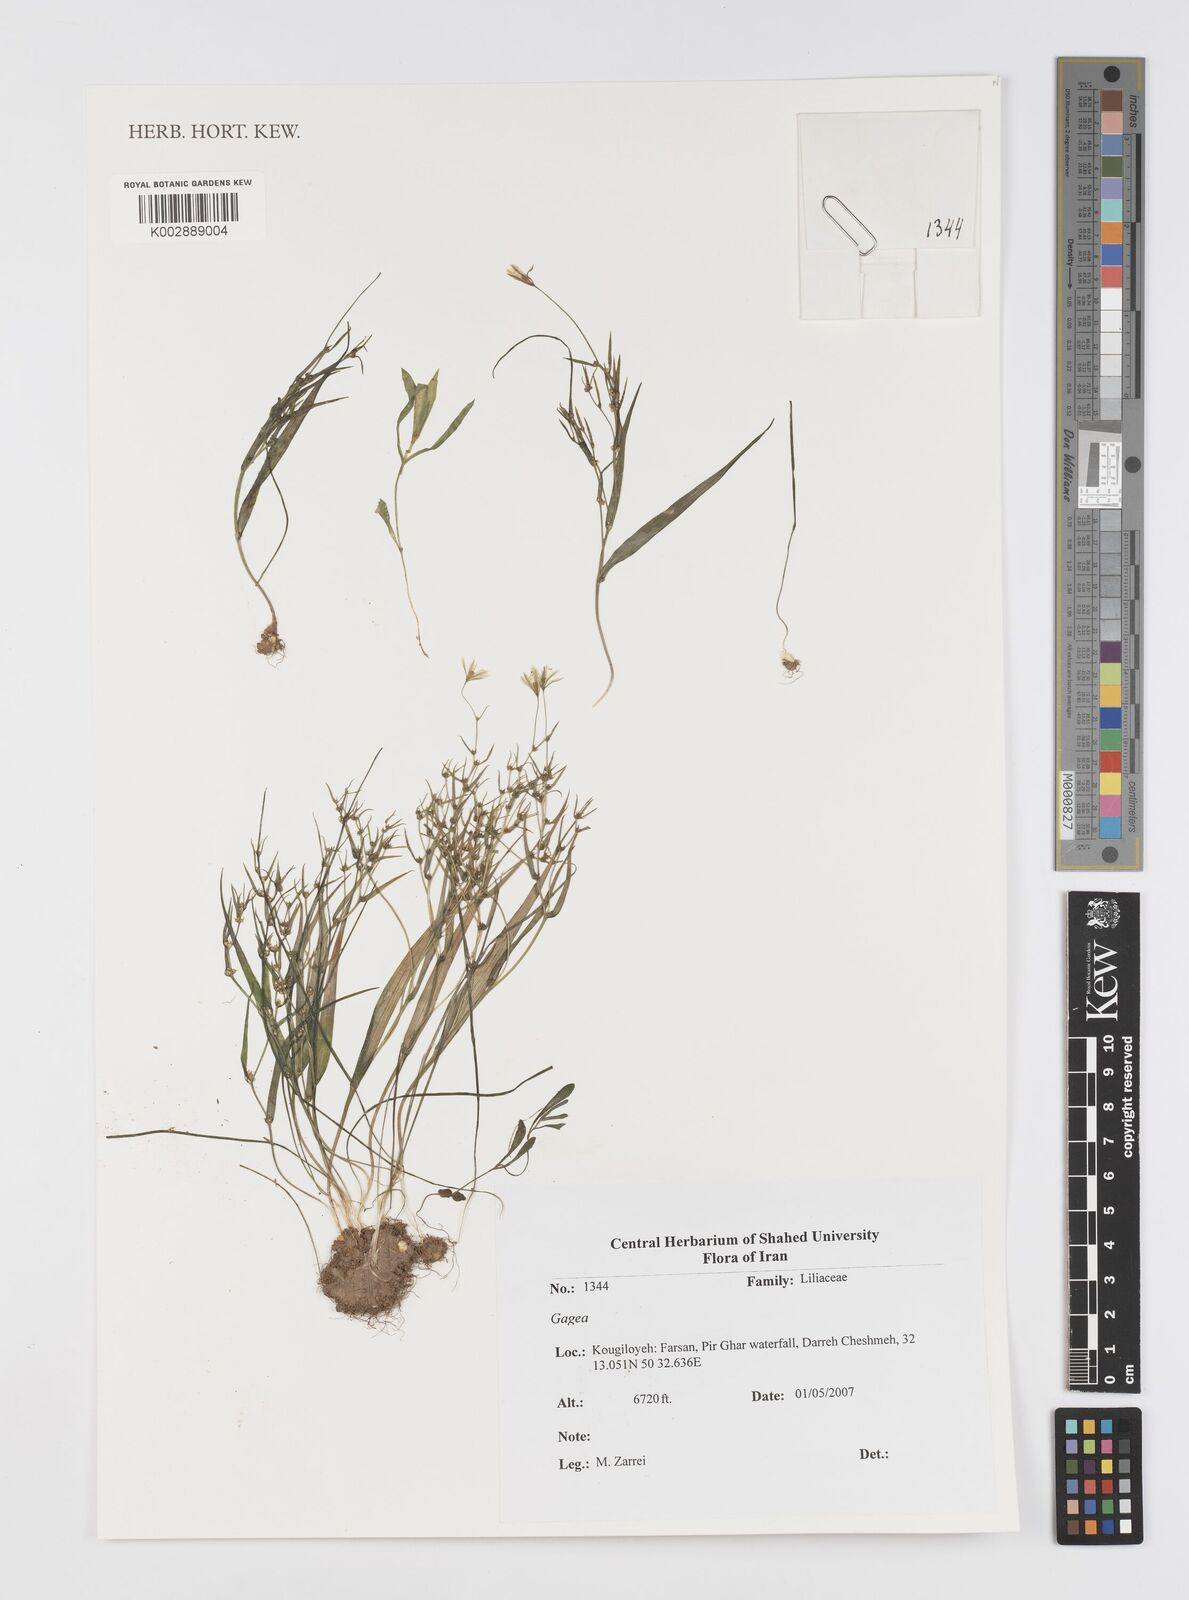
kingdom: Plantae
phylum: Tracheophyta
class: Liliopsida
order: Liliales
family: Liliaceae
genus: Gagea
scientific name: Gagea
